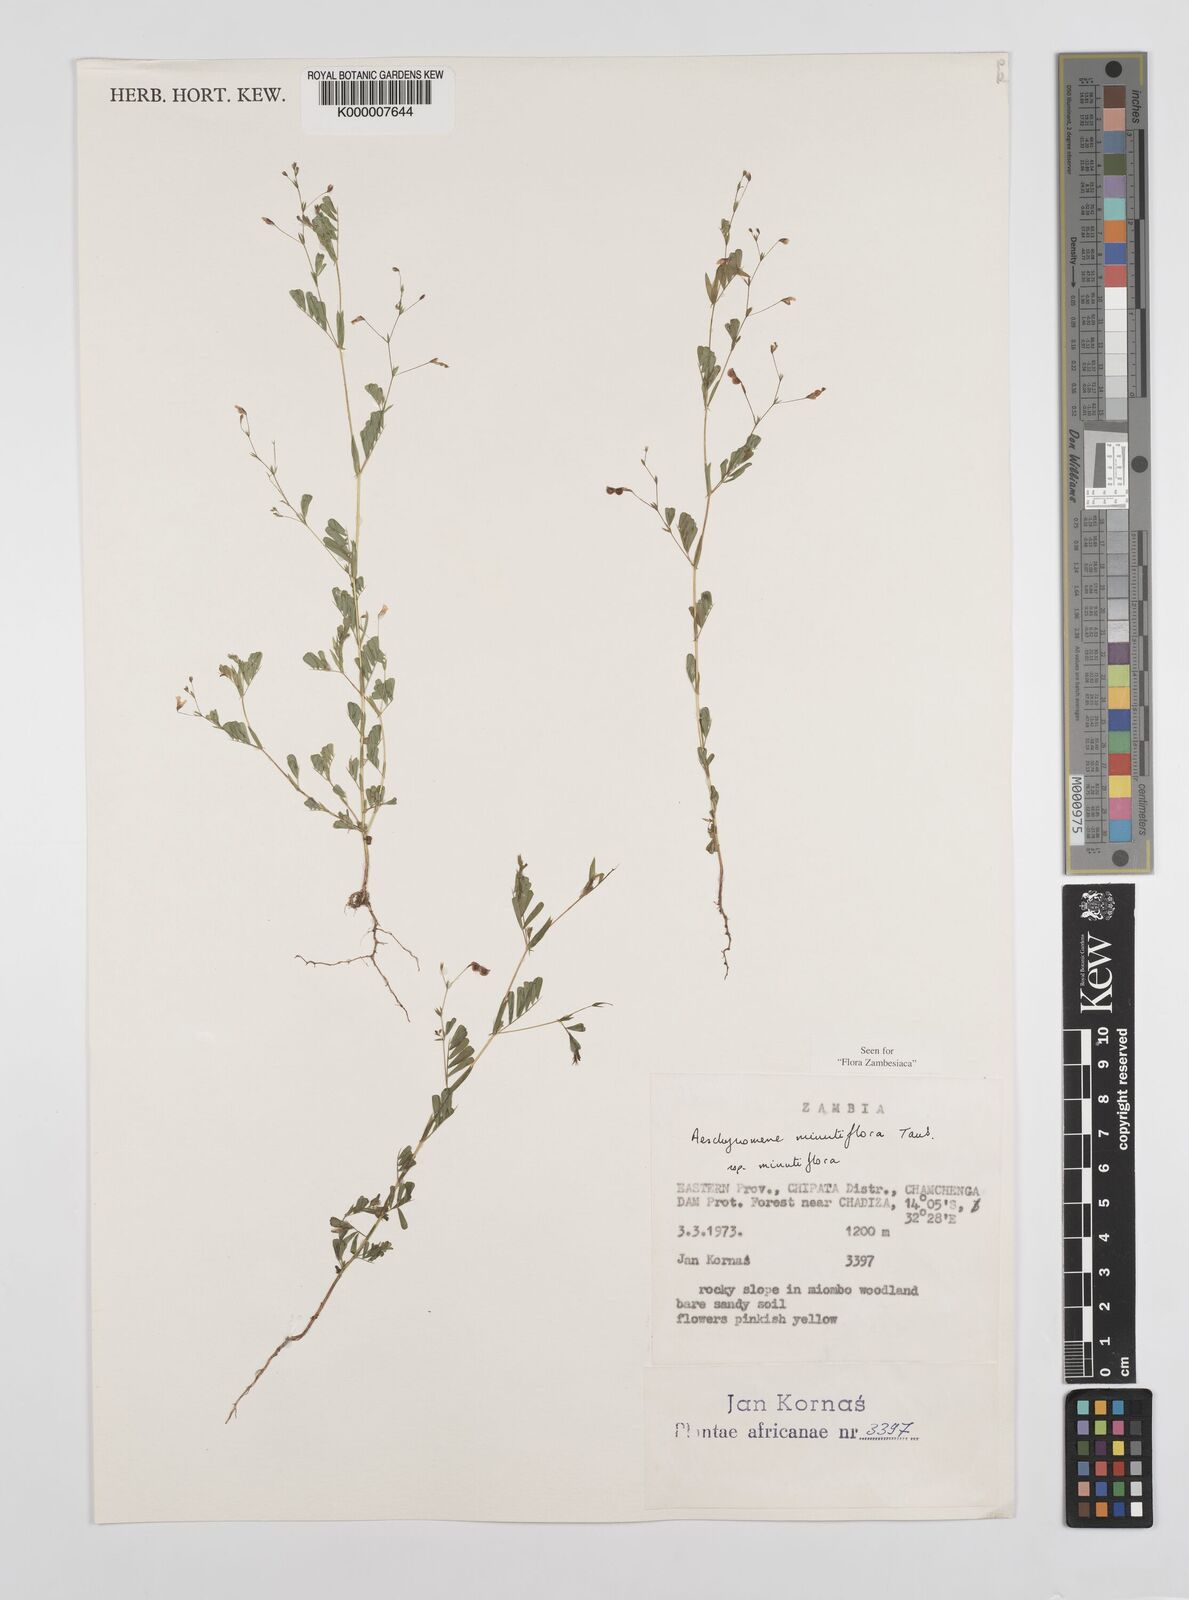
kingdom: Plantae
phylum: Tracheophyta
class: Magnoliopsida
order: Fabales
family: Fabaceae
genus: Aeschynomene
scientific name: Aeschynomene minutiflora
